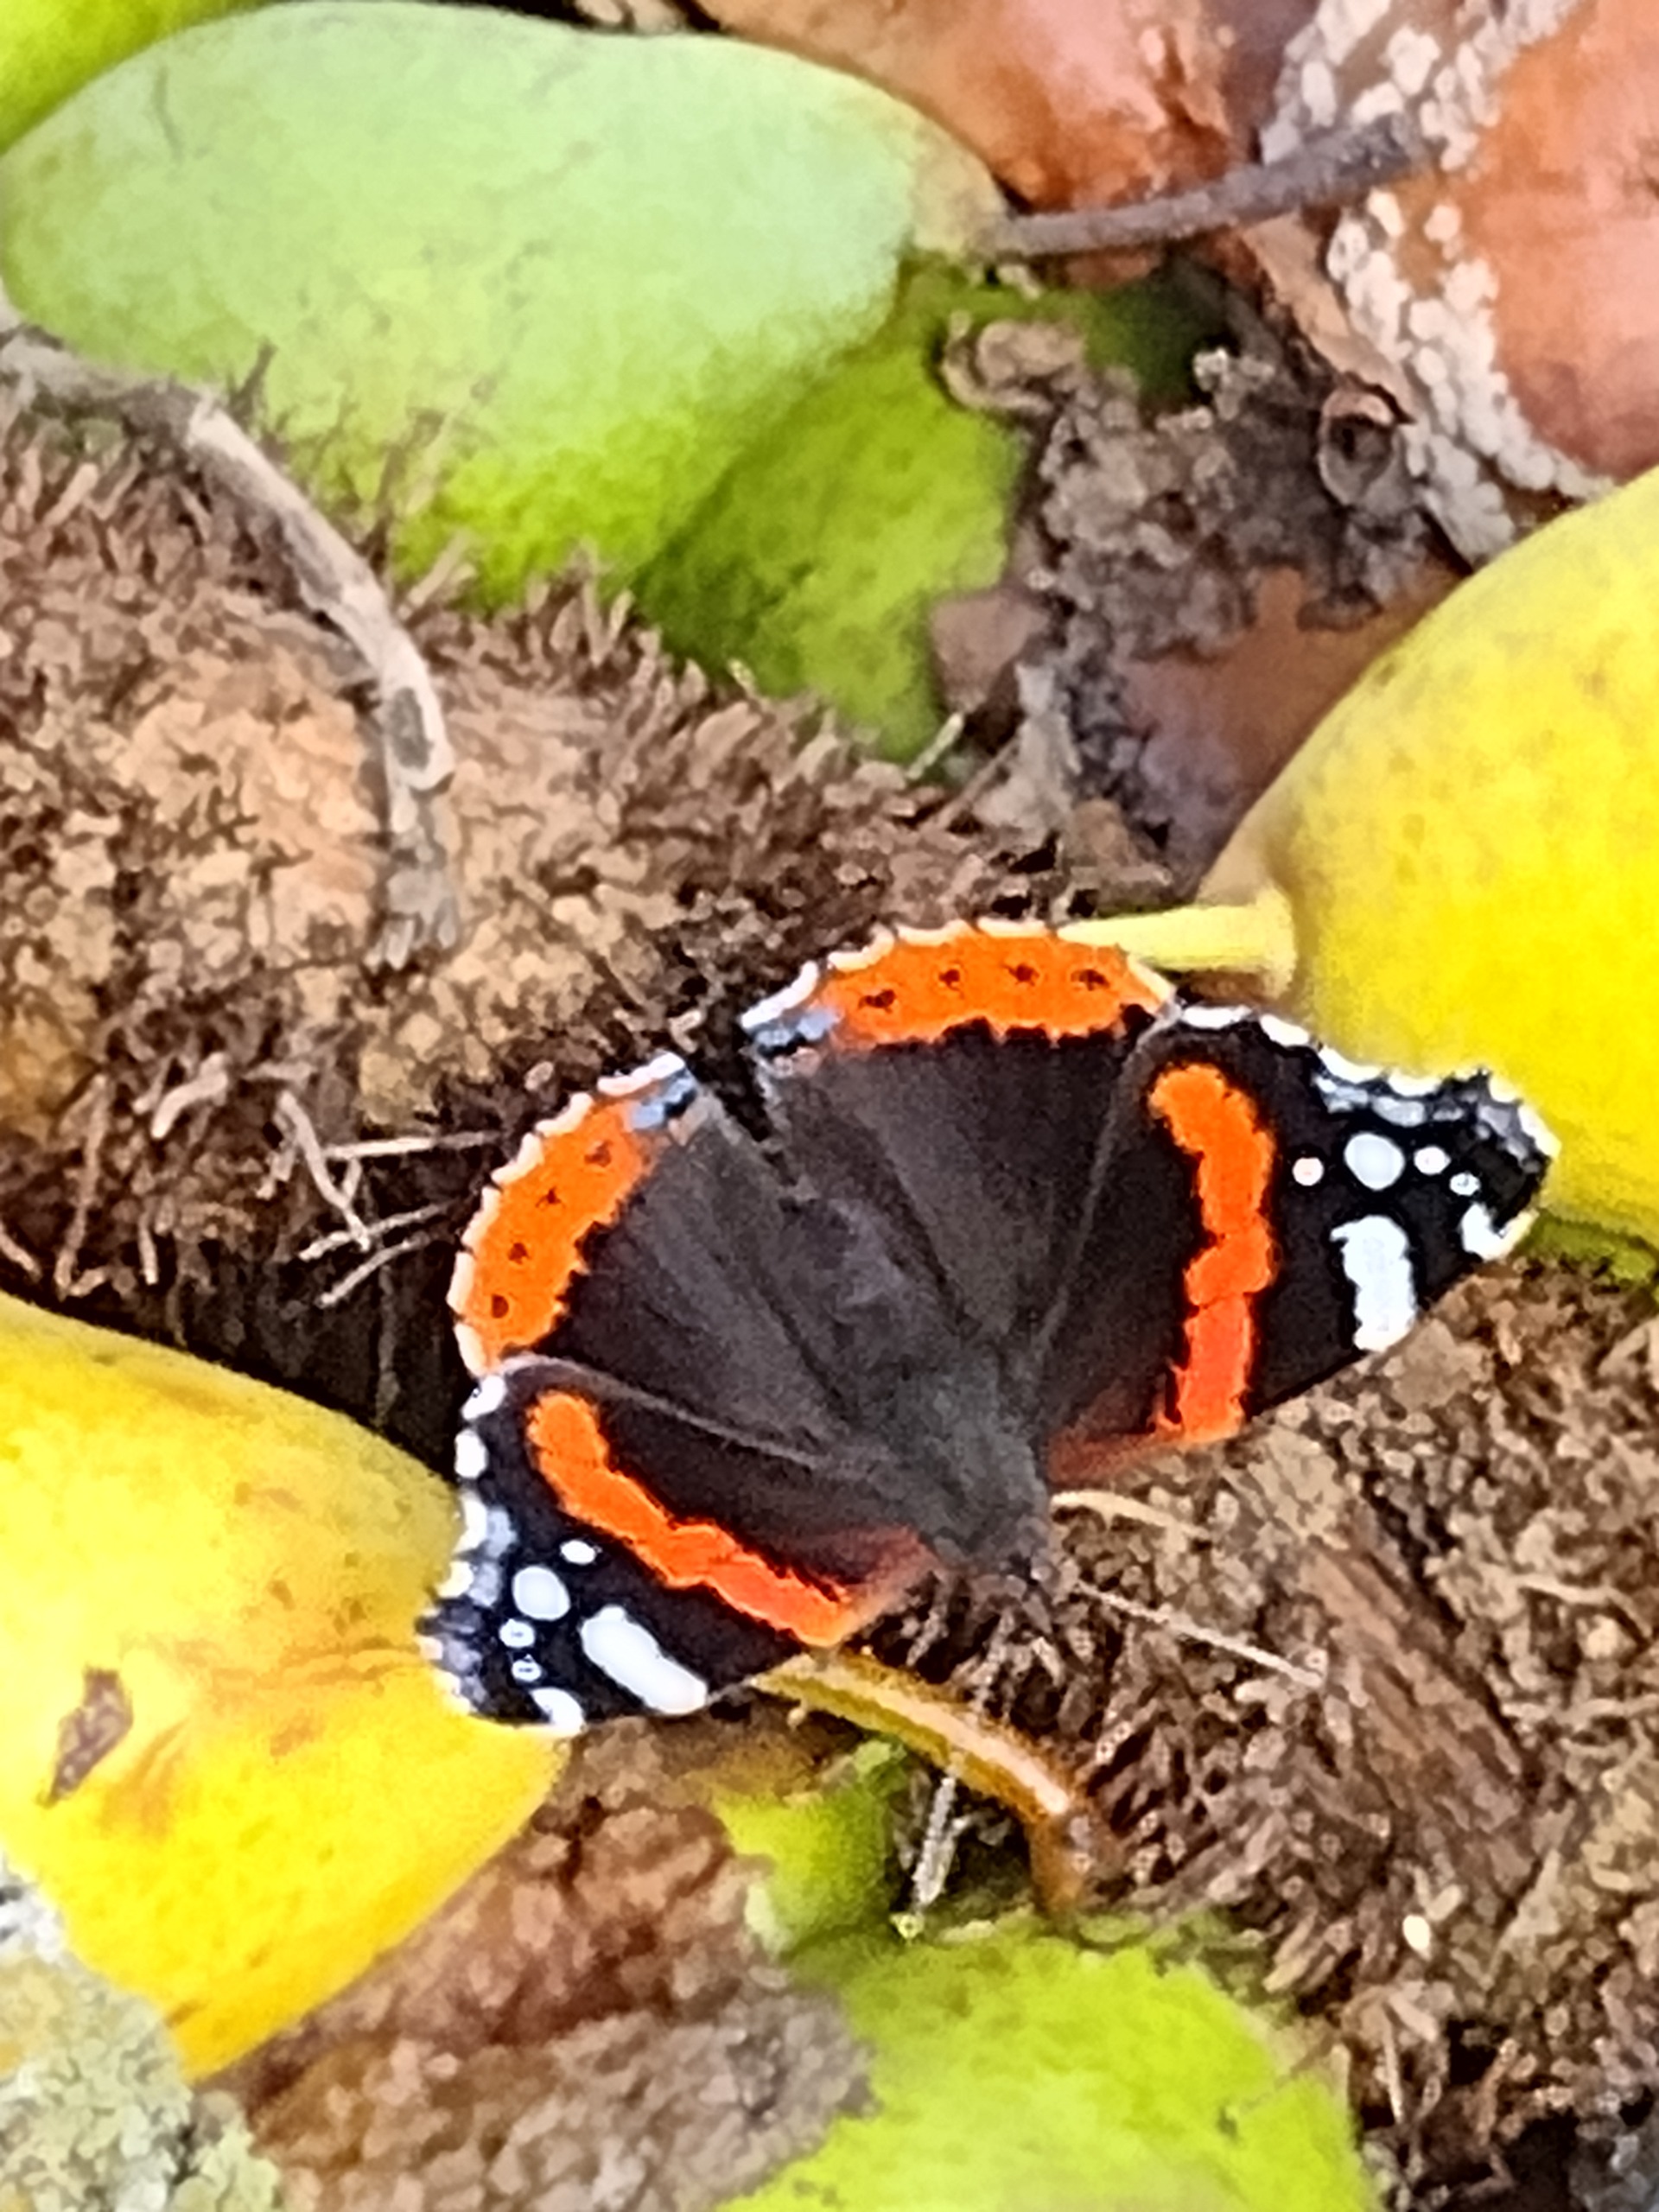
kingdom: Animalia
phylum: Arthropoda
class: Insecta
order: Lepidoptera
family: Nymphalidae
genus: Vanessa
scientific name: Vanessa atalanta
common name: Admiral
